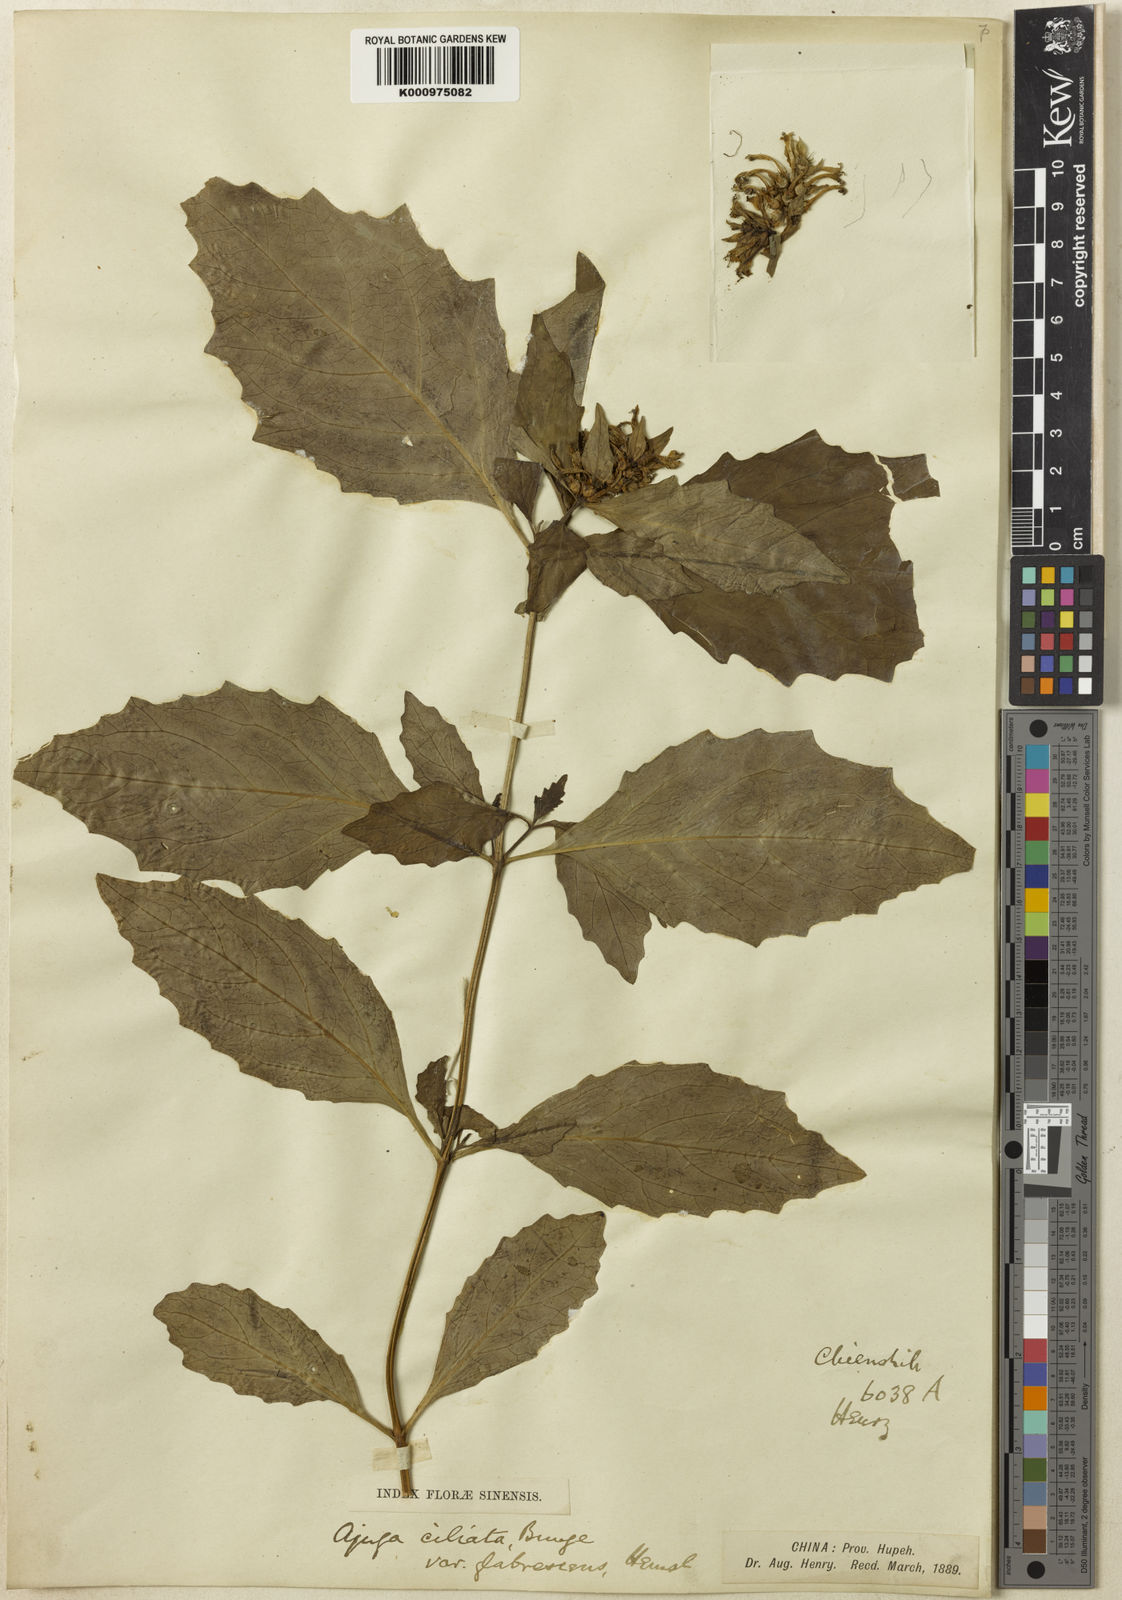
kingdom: Plantae
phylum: Tracheophyta
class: Magnoliopsida
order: Lamiales
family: Lamiaceae
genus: Ajuga
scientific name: Ajuga ciliata
